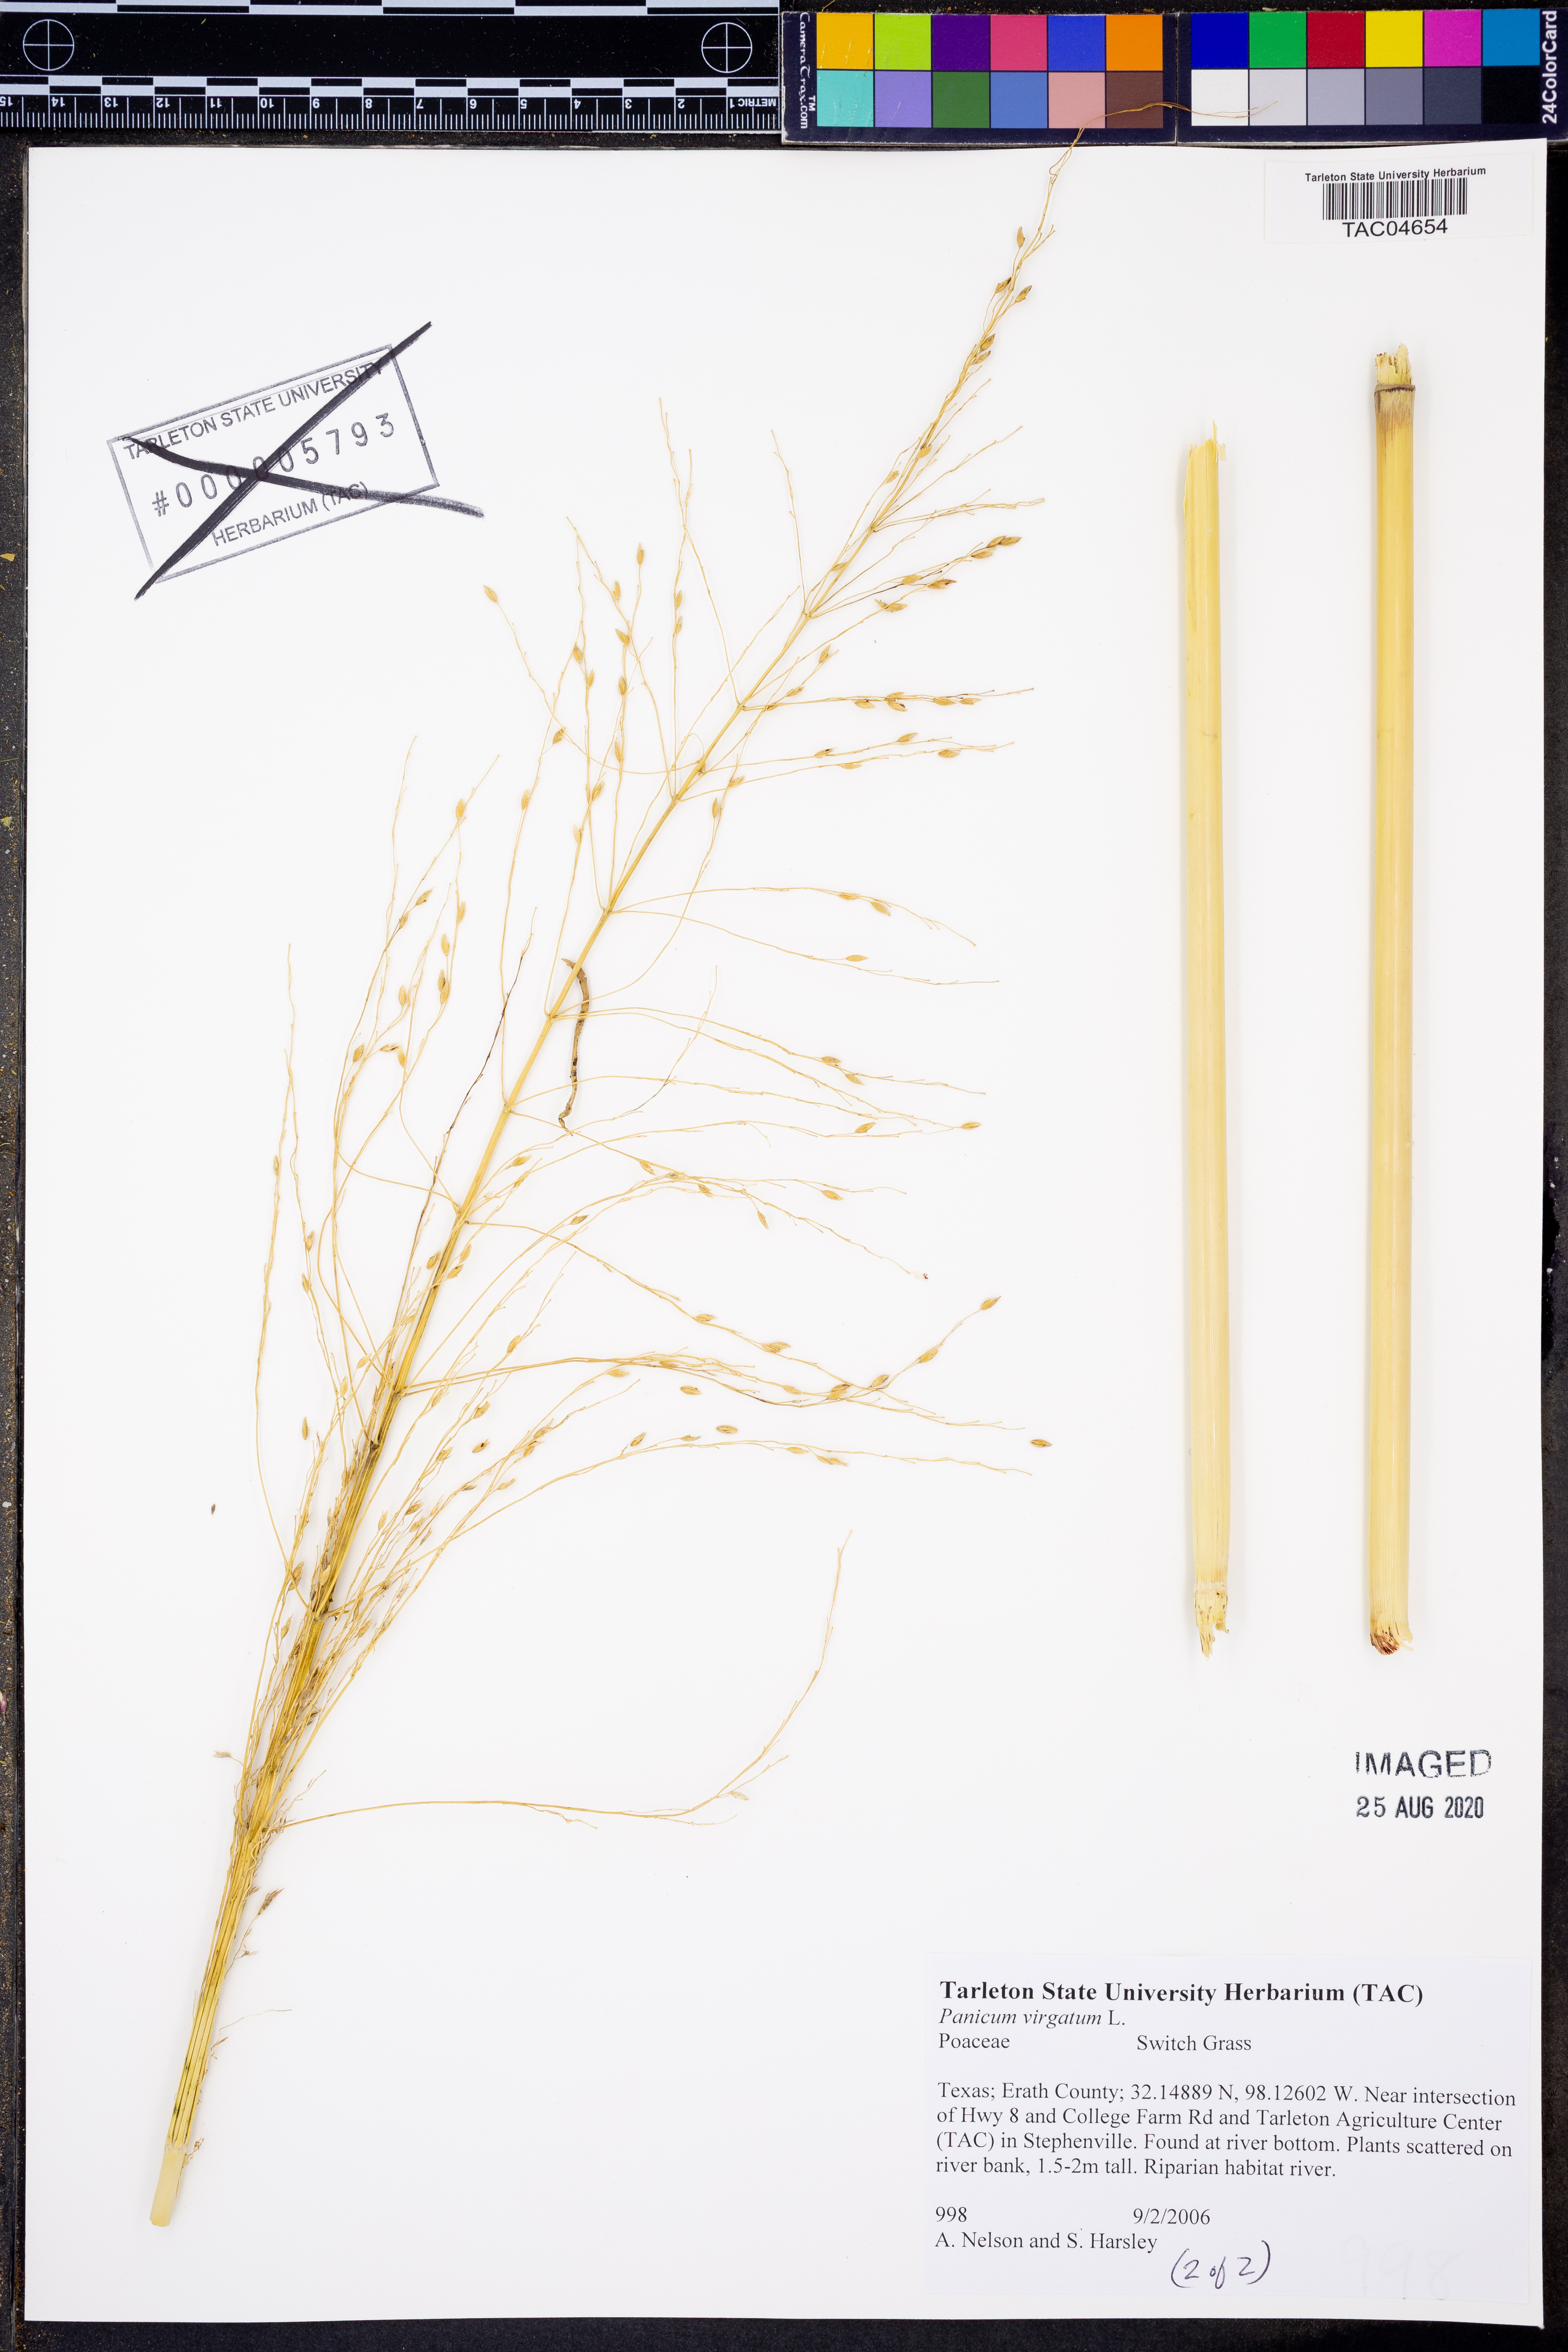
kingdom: Plantae
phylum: Tracheophyta
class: Liliopsida
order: Poales
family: Poaceae
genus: Panicum
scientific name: Panicum virgatum
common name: Switchgrass
